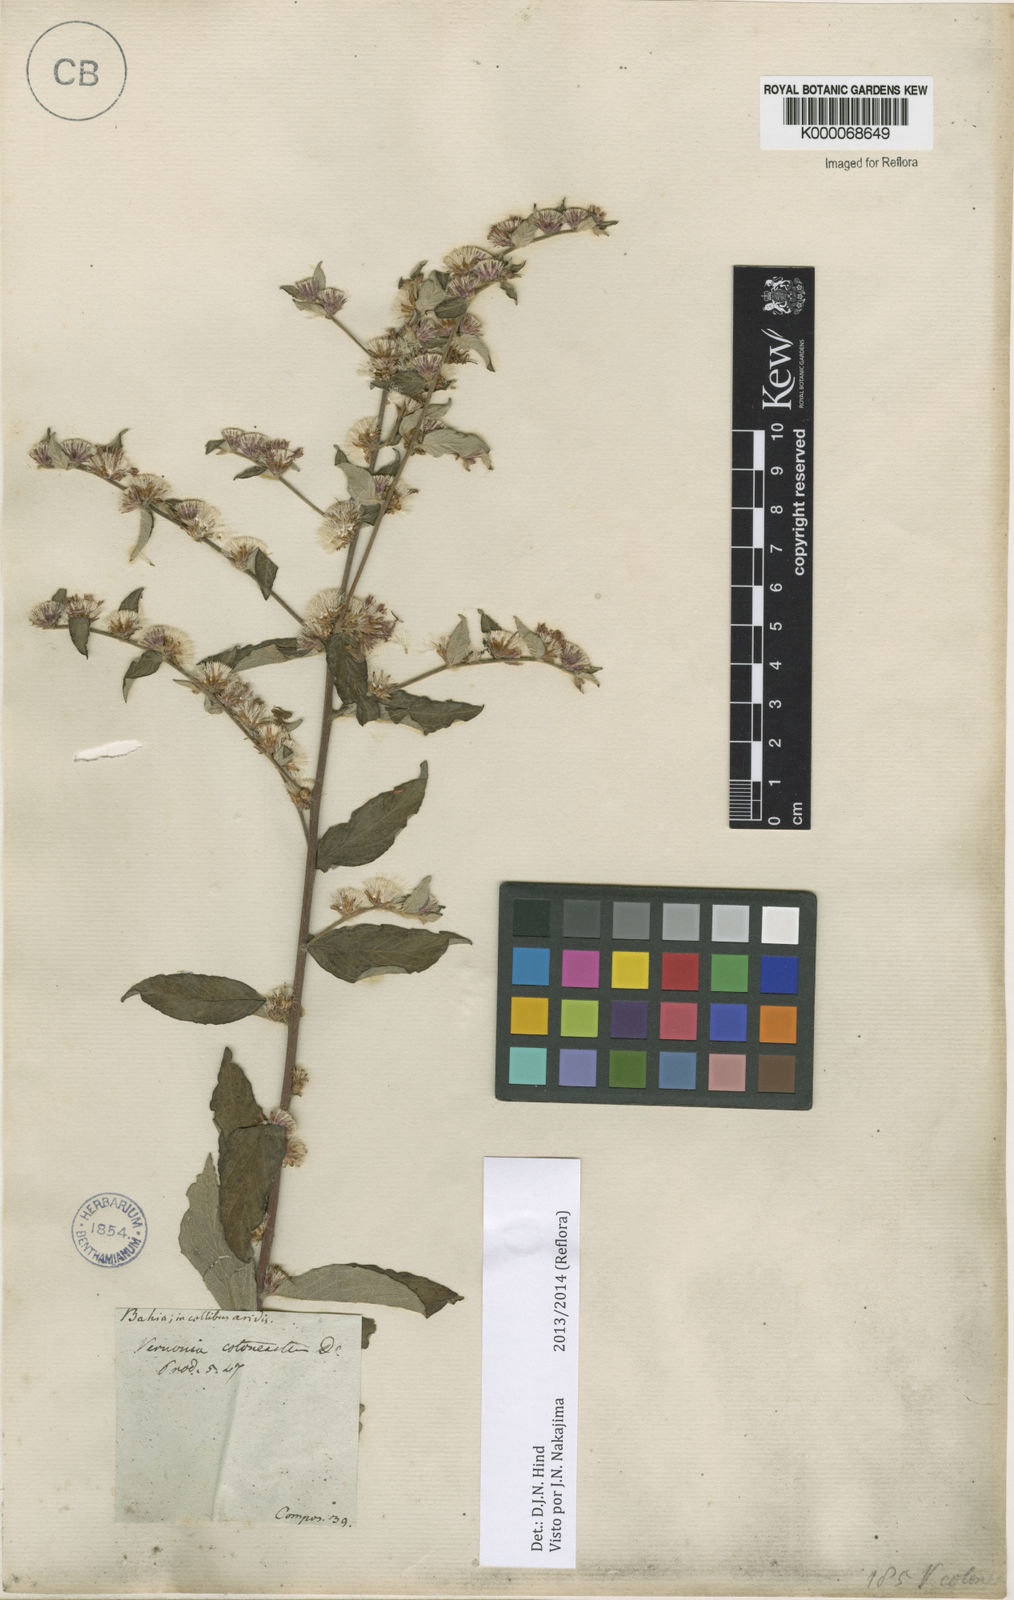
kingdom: Plantae
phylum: Tracheophyta
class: Magnoliopsida
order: Asterales
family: Asteraceae
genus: Lepidaploa
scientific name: Lepidaploa cotoneaster
